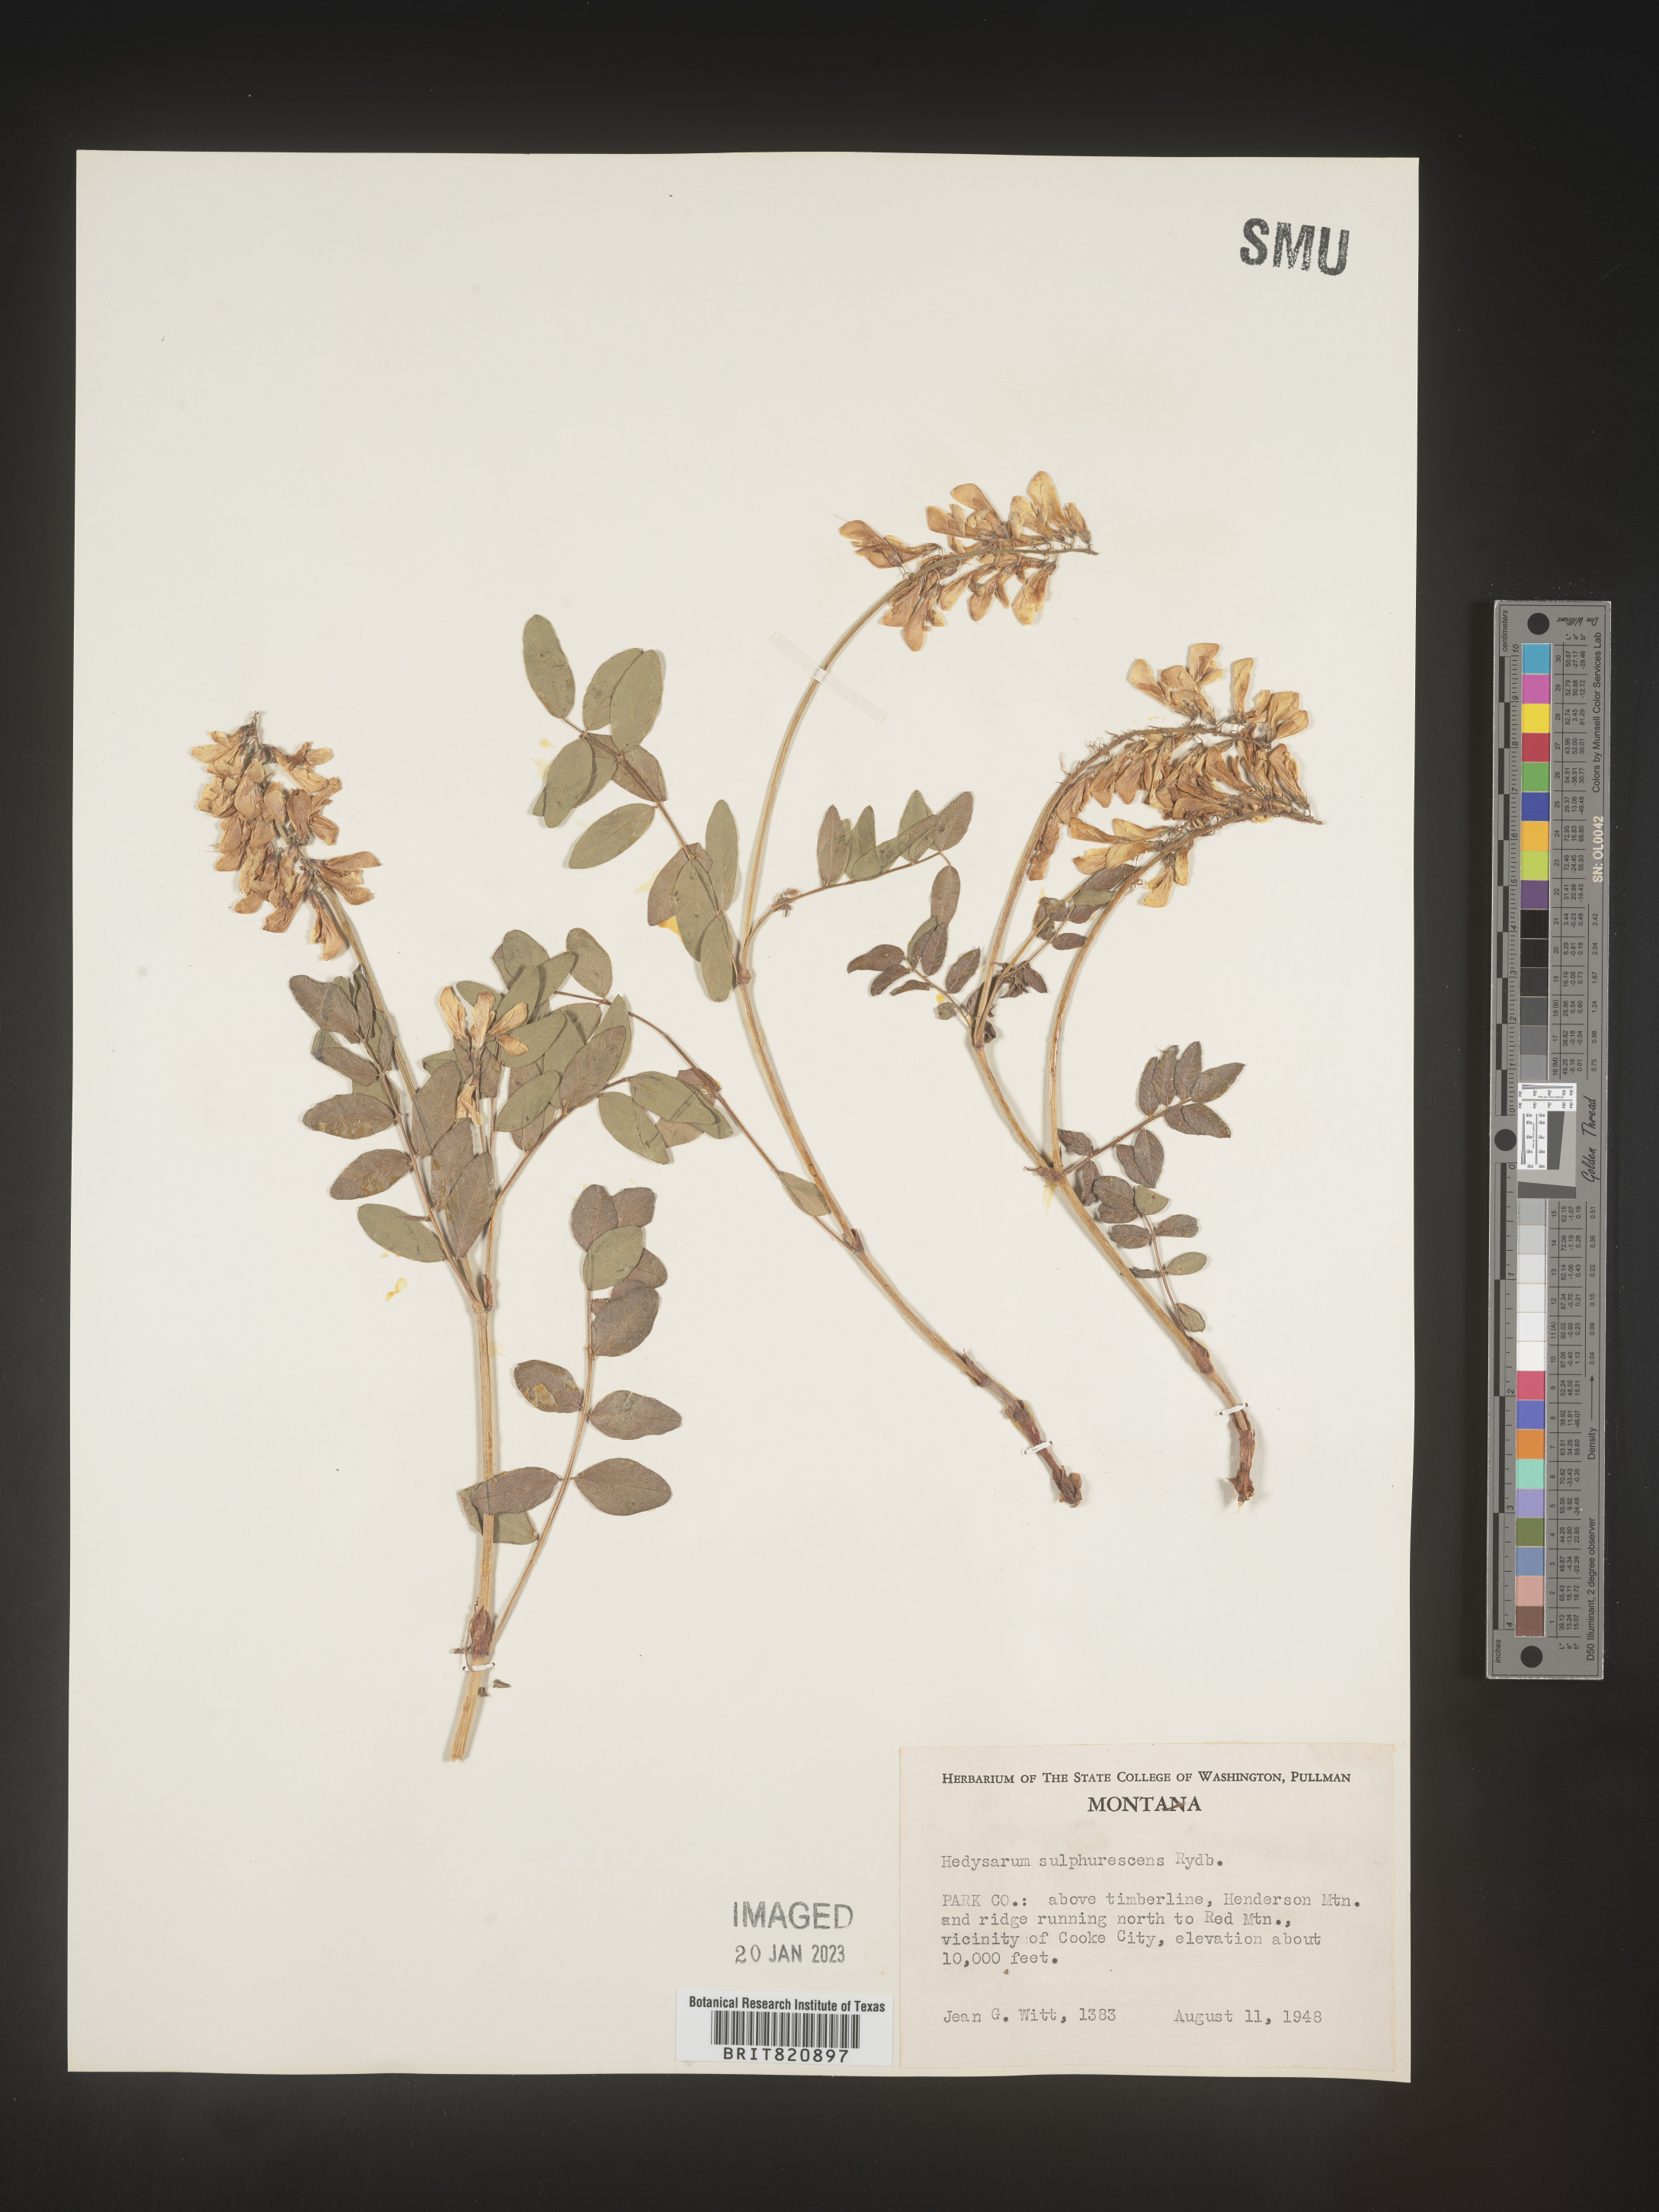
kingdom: Plantae
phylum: Tracheophyta
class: Magnoliopsida
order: Fabales
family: Fabaceae
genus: Hedysarum
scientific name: Hedysarum sulphurescens
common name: Sulphur hedysarum
